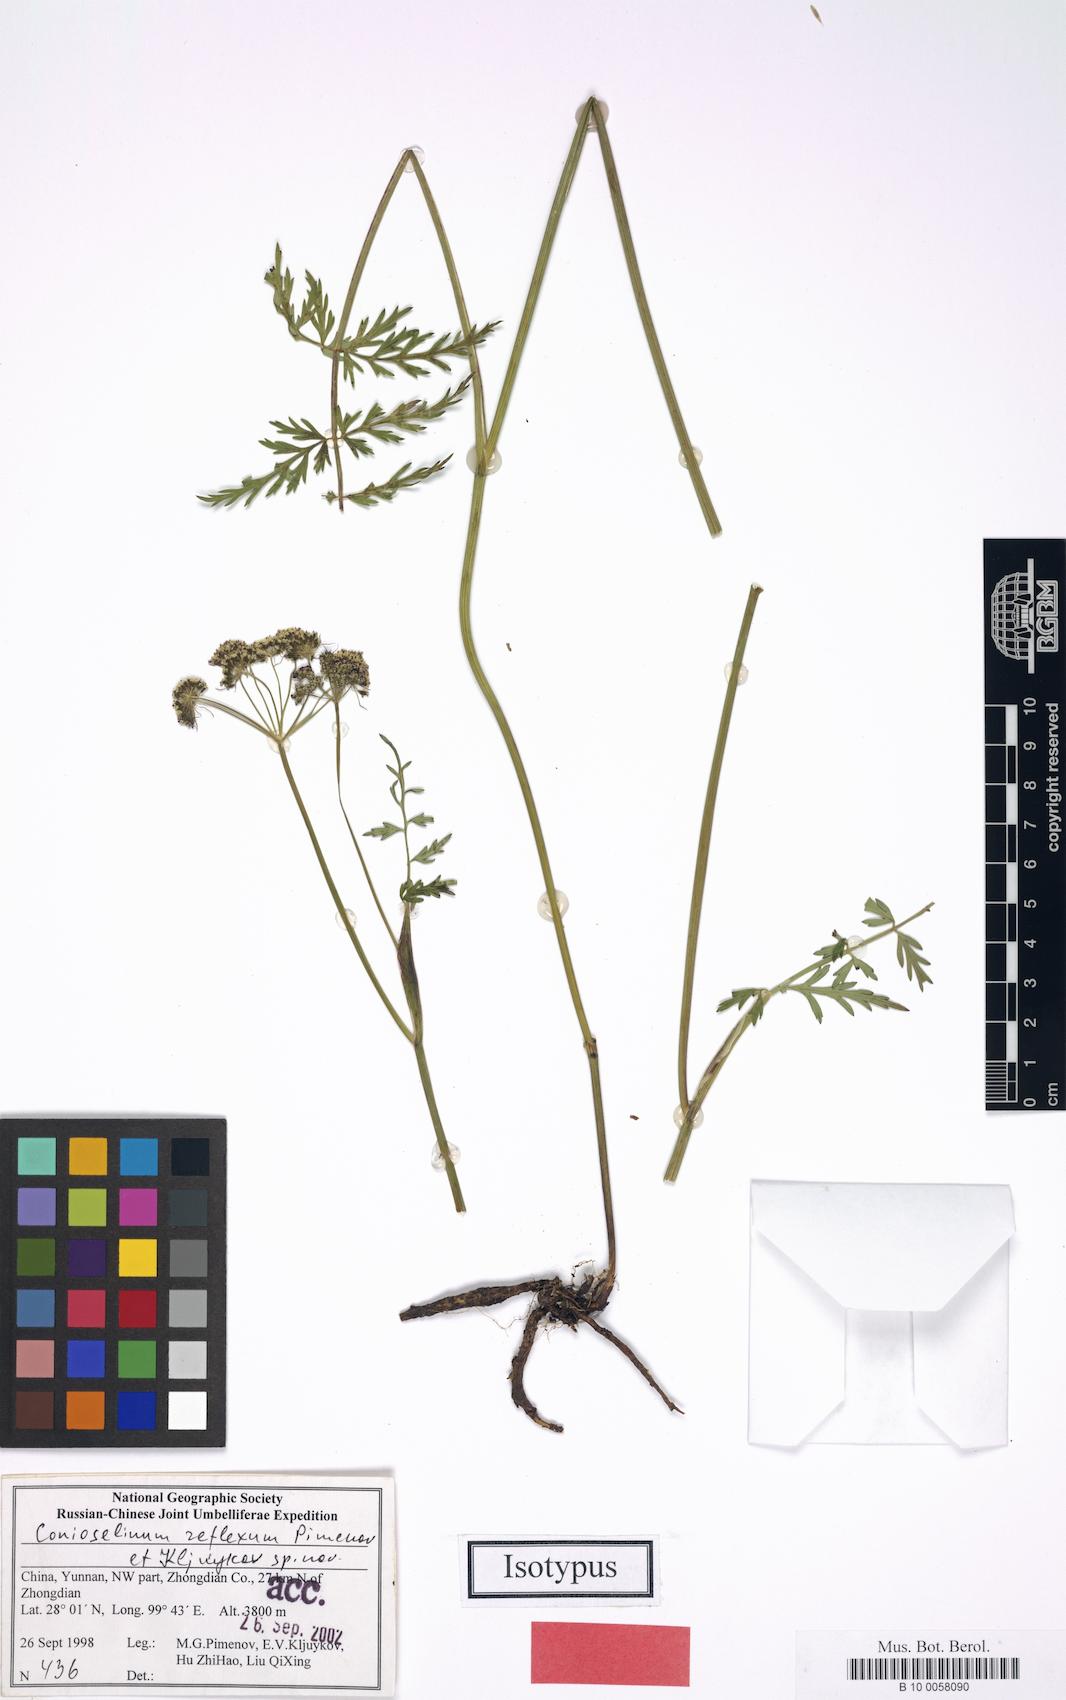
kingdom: Plantae
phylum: Tracheophyta
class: Magnoliopsida
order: Apiales
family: Apiaceae
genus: Conioselinum
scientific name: Conioselinum reflexum
